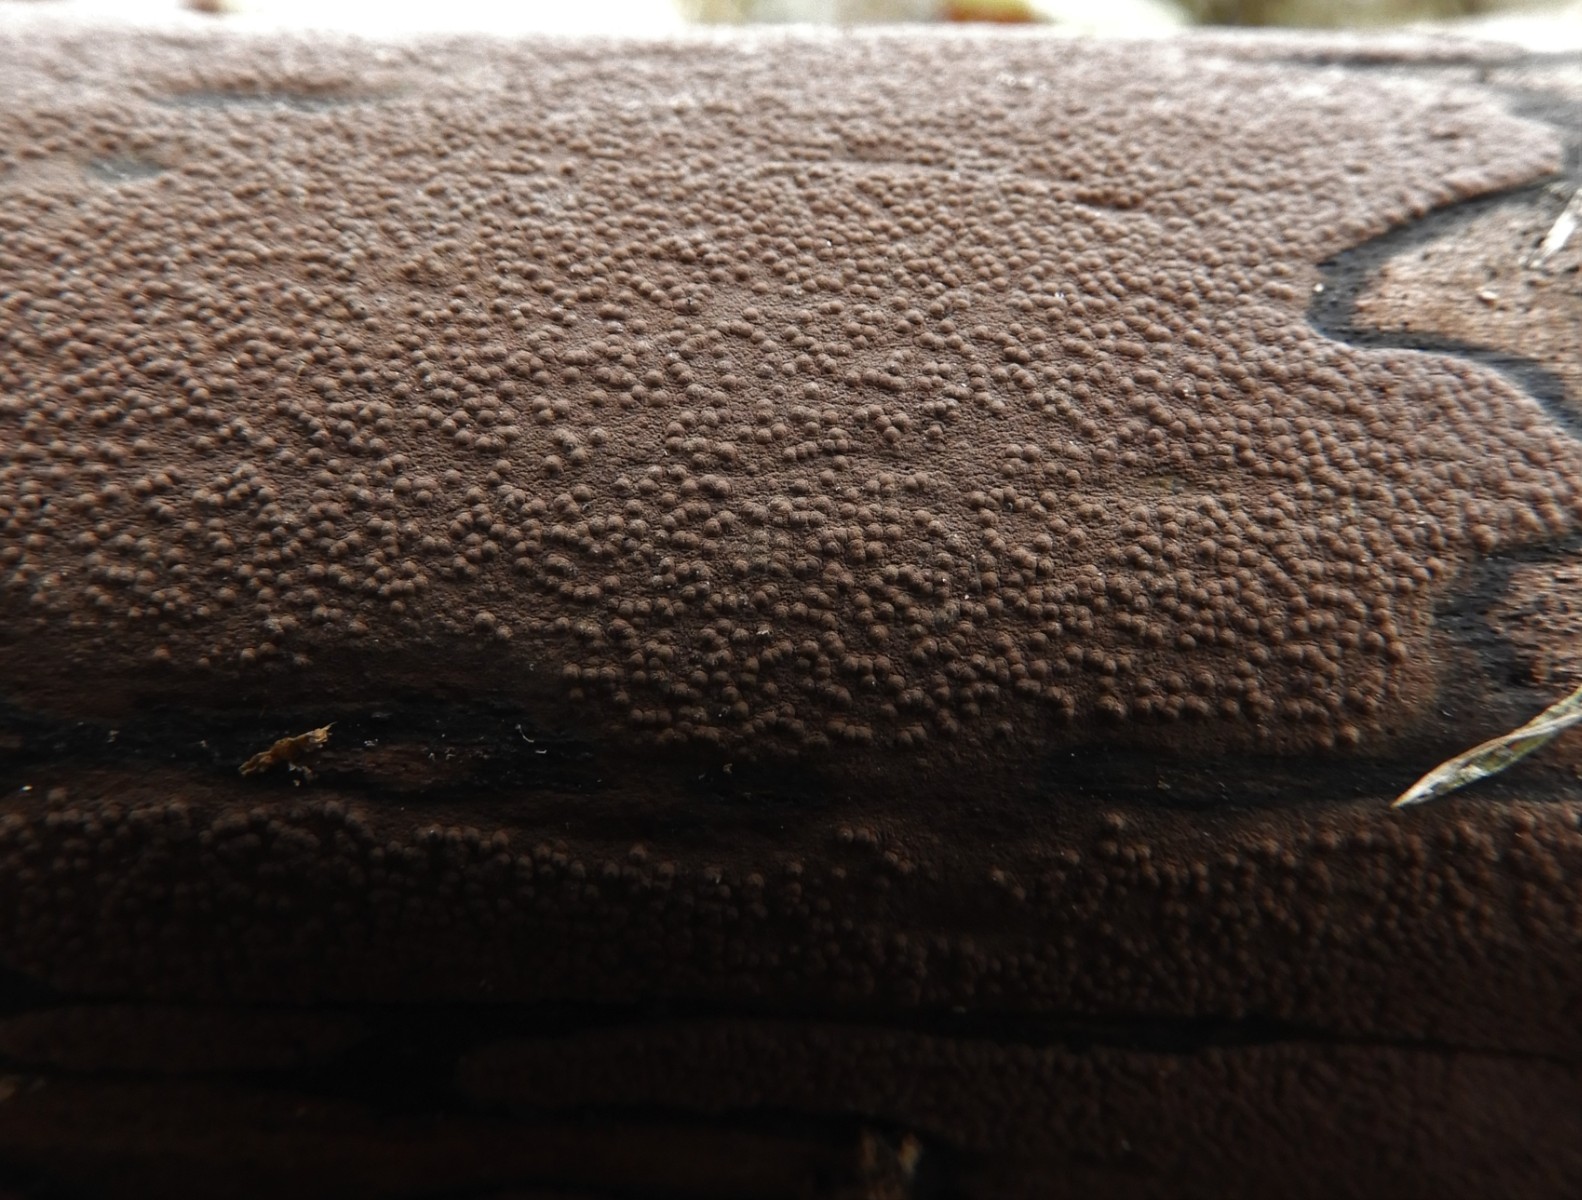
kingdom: Fungi
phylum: Ascomycota
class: Sordariomycetes
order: Xylariales
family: Hypoxylaceae
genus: Hypoxylon
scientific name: Hypoxylon petriniae
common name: nedsænket kulbær
